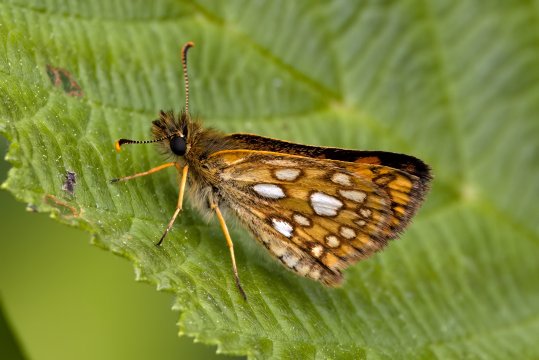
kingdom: Animalia
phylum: Arthropoda
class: Insecta
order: Lepidoptera
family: Hesperiidae
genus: Carterocephalus
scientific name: Carterocephalus mandan
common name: Arctic Skipperling
